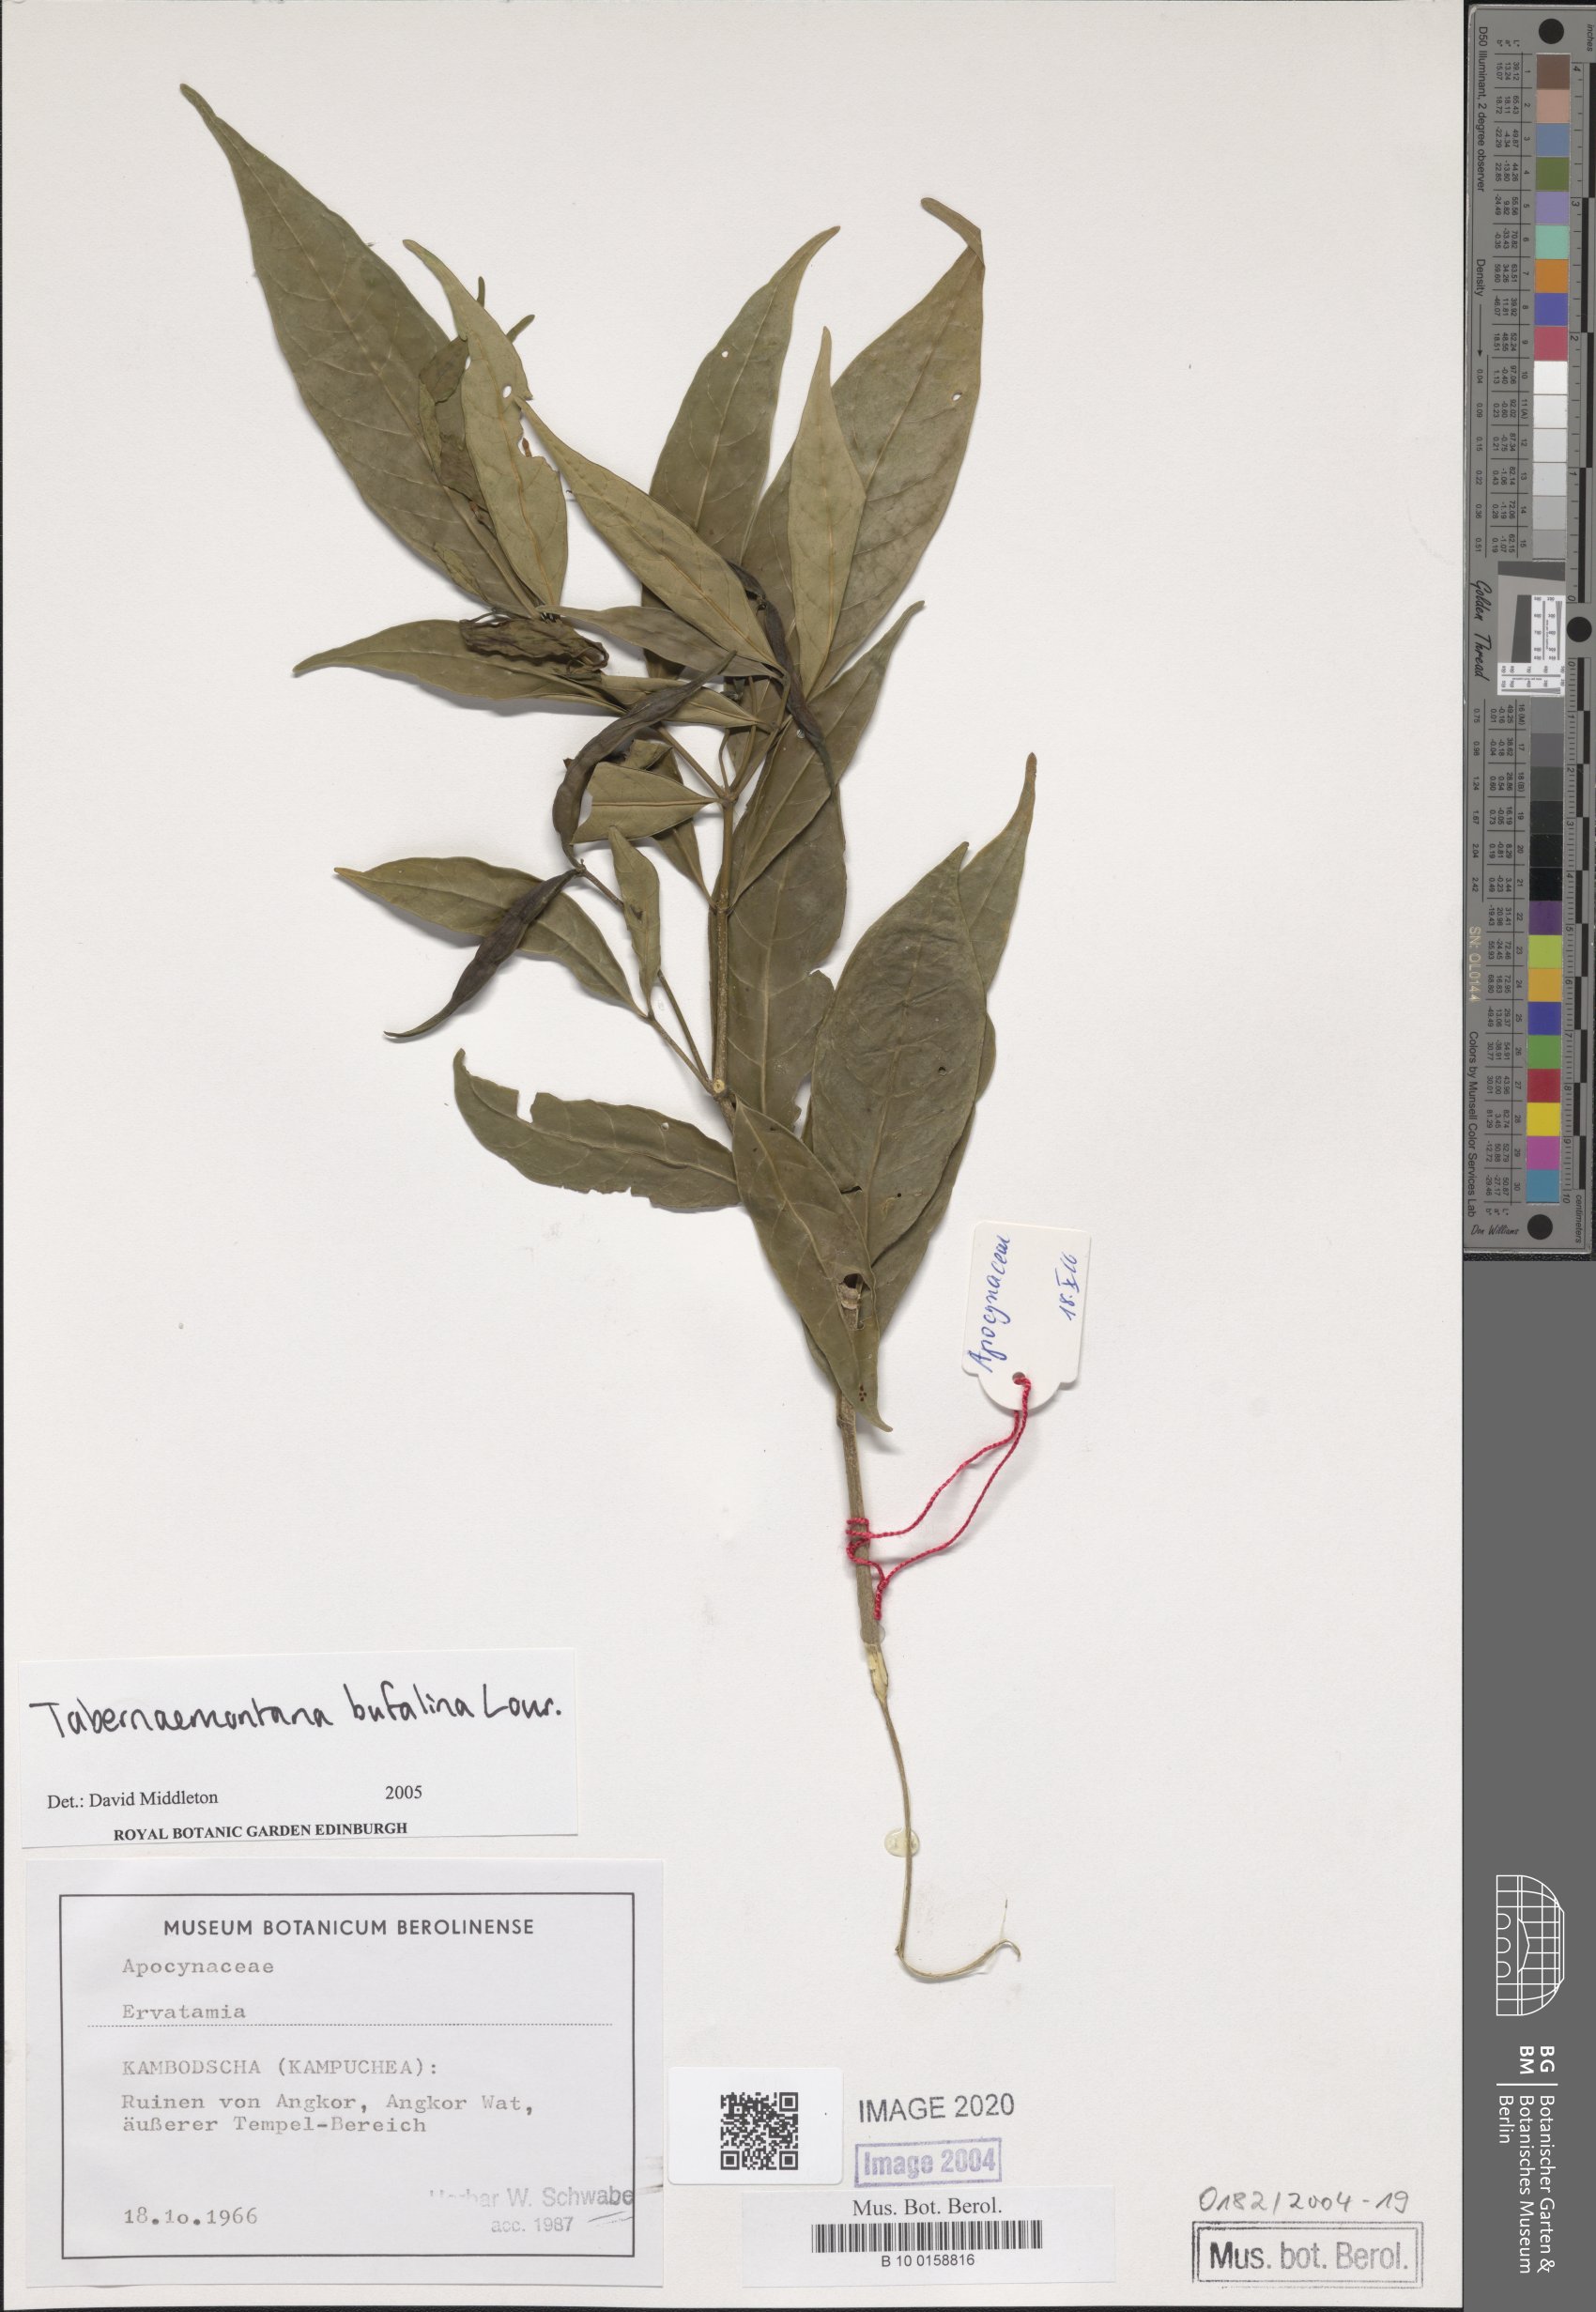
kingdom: Plantae
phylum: Tracheophyta
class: Magnoliopsida
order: Gentianales
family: Apocynaceae
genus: Tabernaemontana
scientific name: Tabernaemontana
